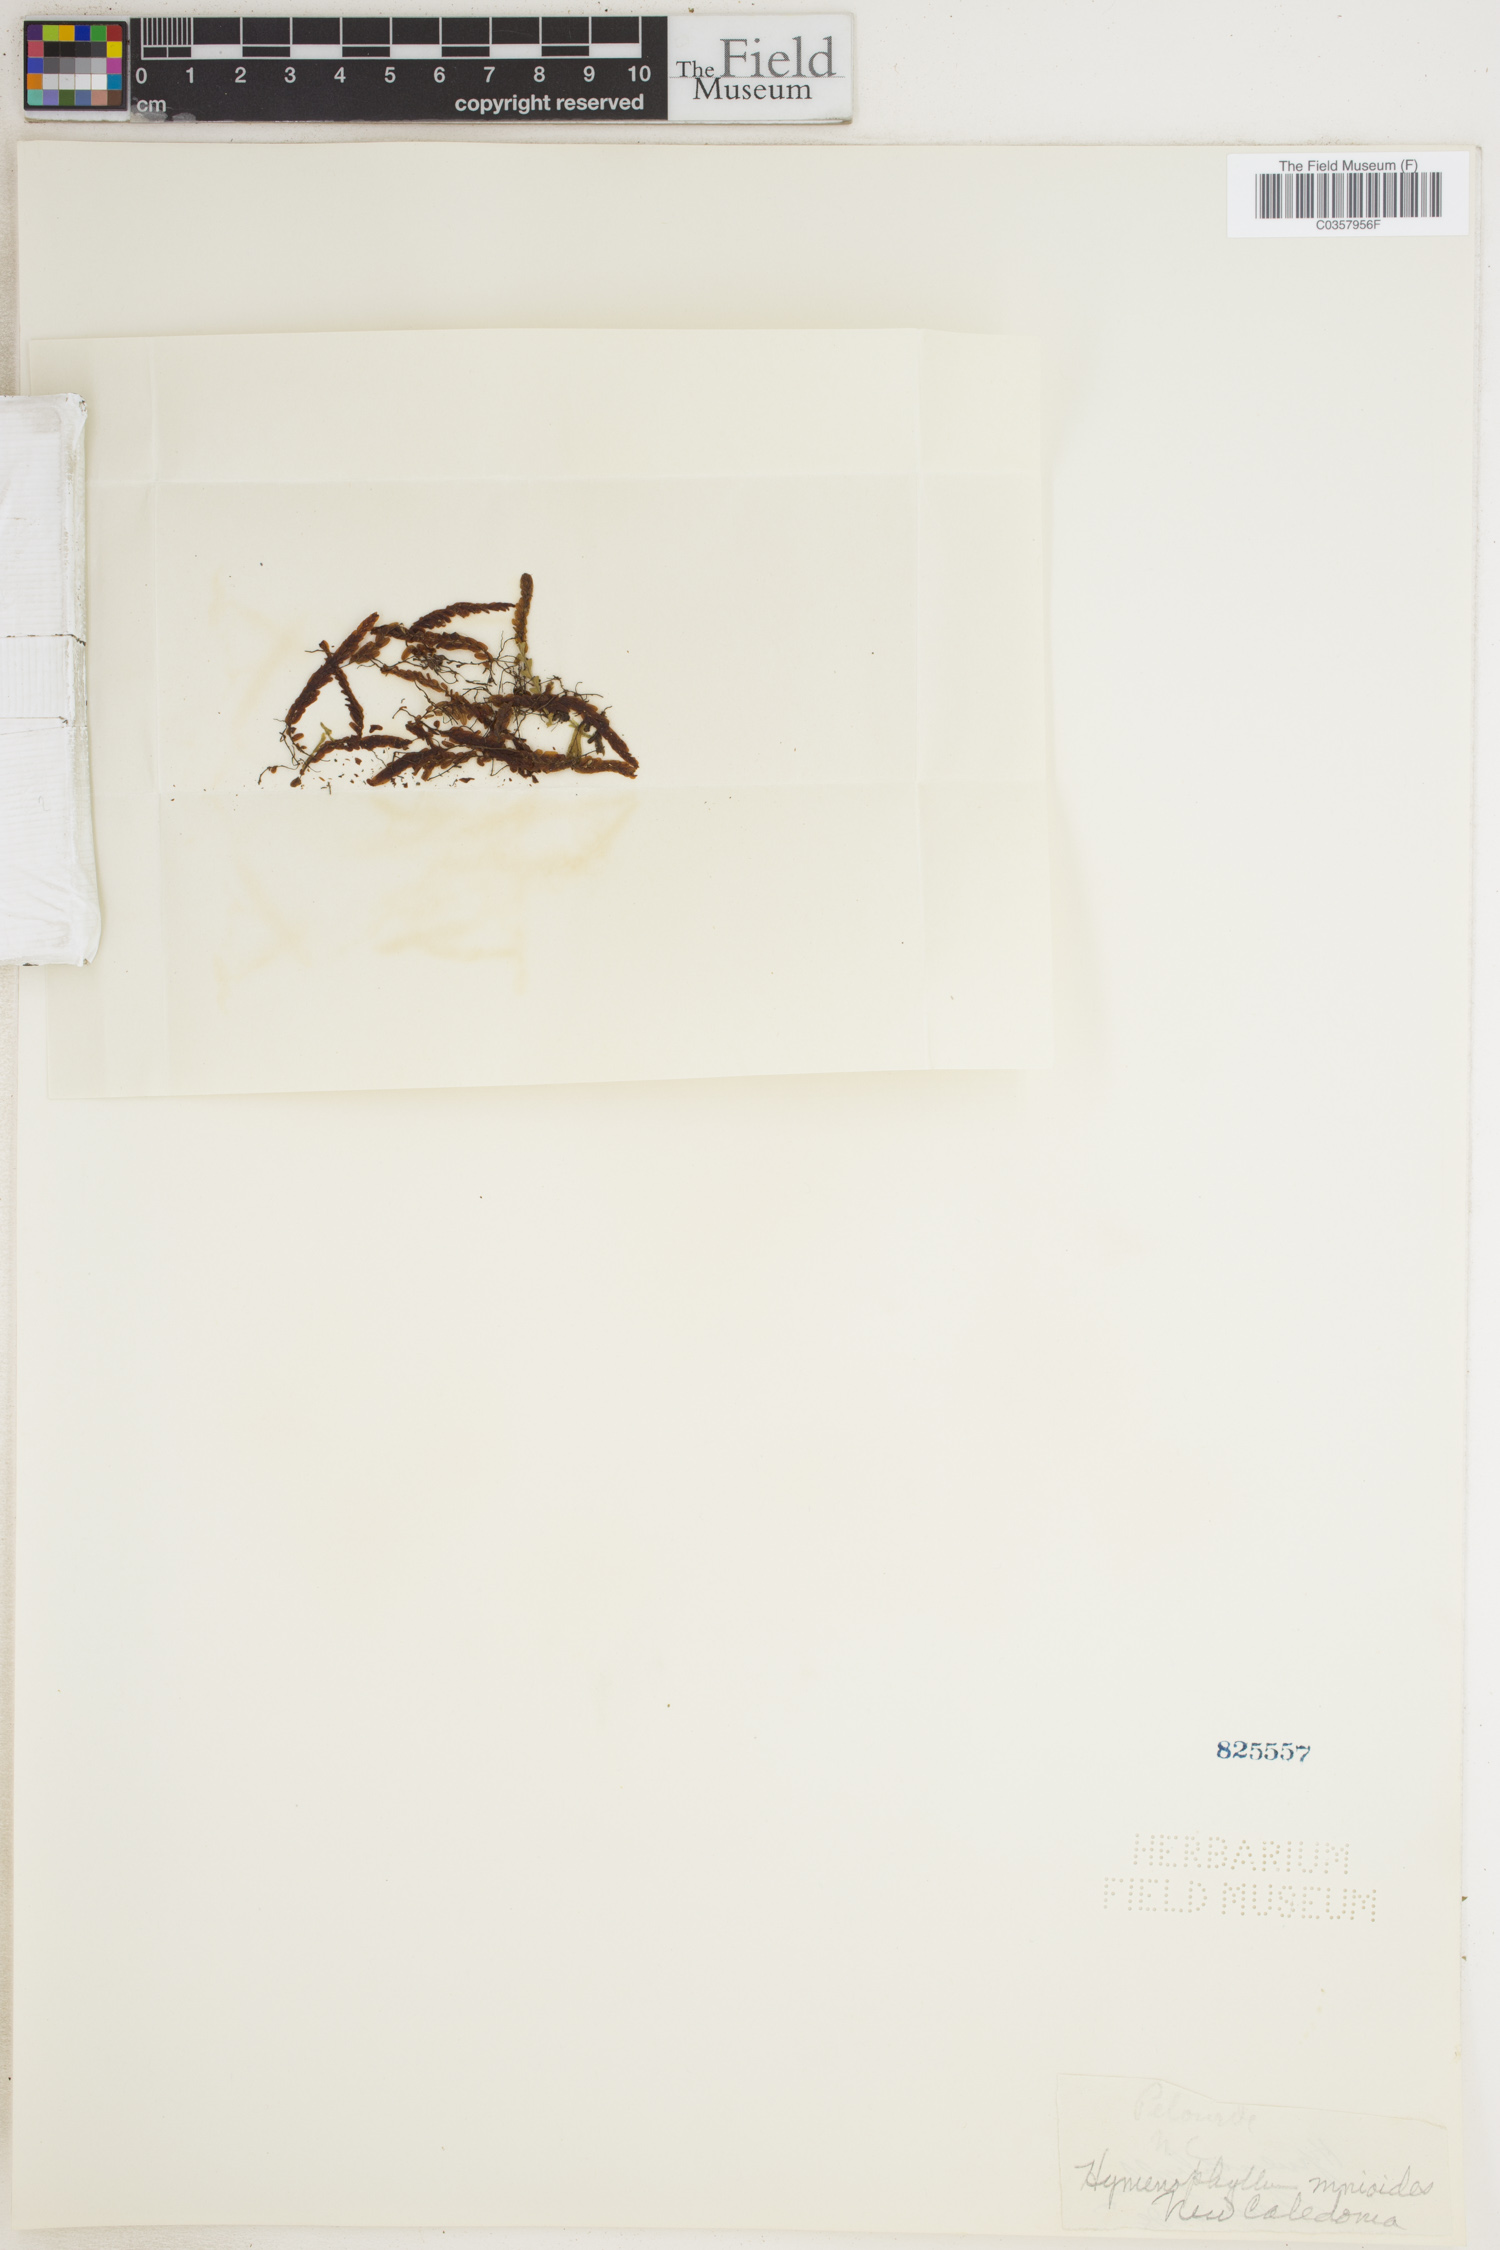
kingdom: Plantae
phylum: Tracheophyta
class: Polypodiopsida
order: Hymenophyllales
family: Hymenophyllaceae
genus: Hymenophyllum
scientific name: Hymenophyllum mnioides
